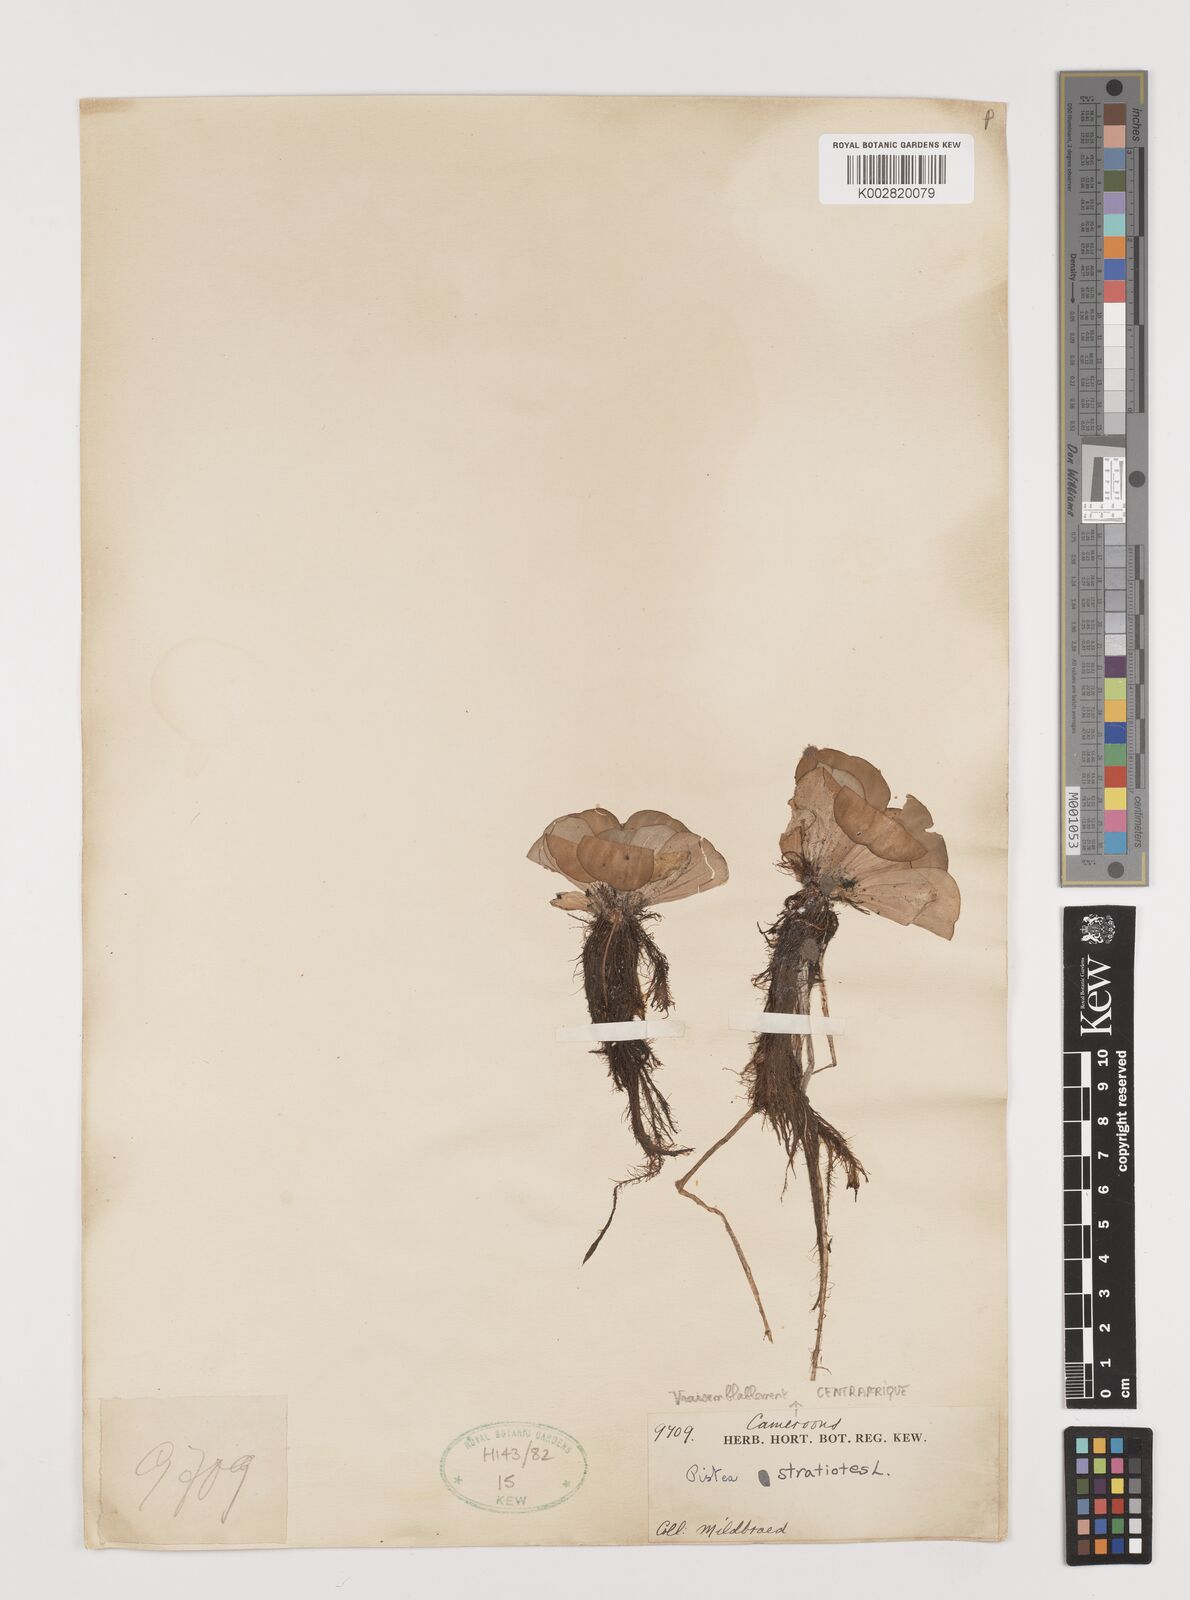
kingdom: Plantae
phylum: Tracheophyta
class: Liliopsida
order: Alismatales
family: Araceae
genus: Pistia
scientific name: Pistia stratiotes
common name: Water lettuce
